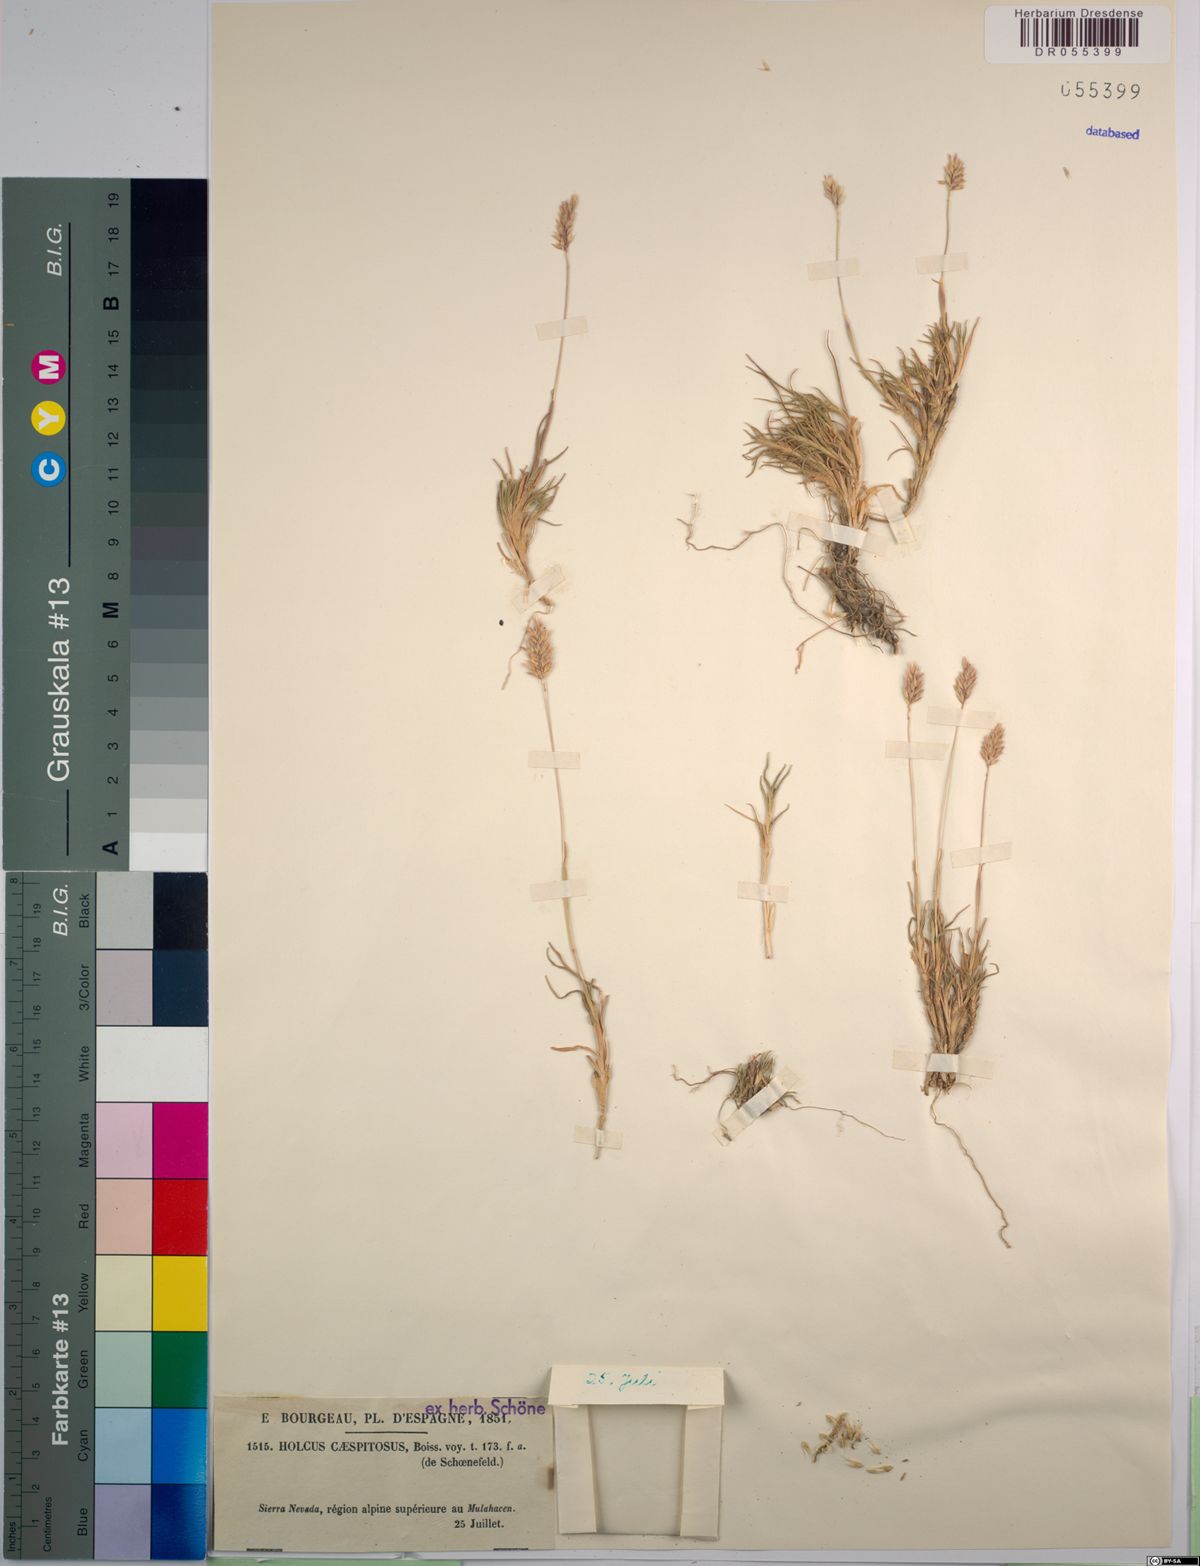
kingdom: Plantae
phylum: Tracheophyta
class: Liliopsida
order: Poales
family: Poaceae
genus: Holcus
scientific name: Holcus caespitosus
